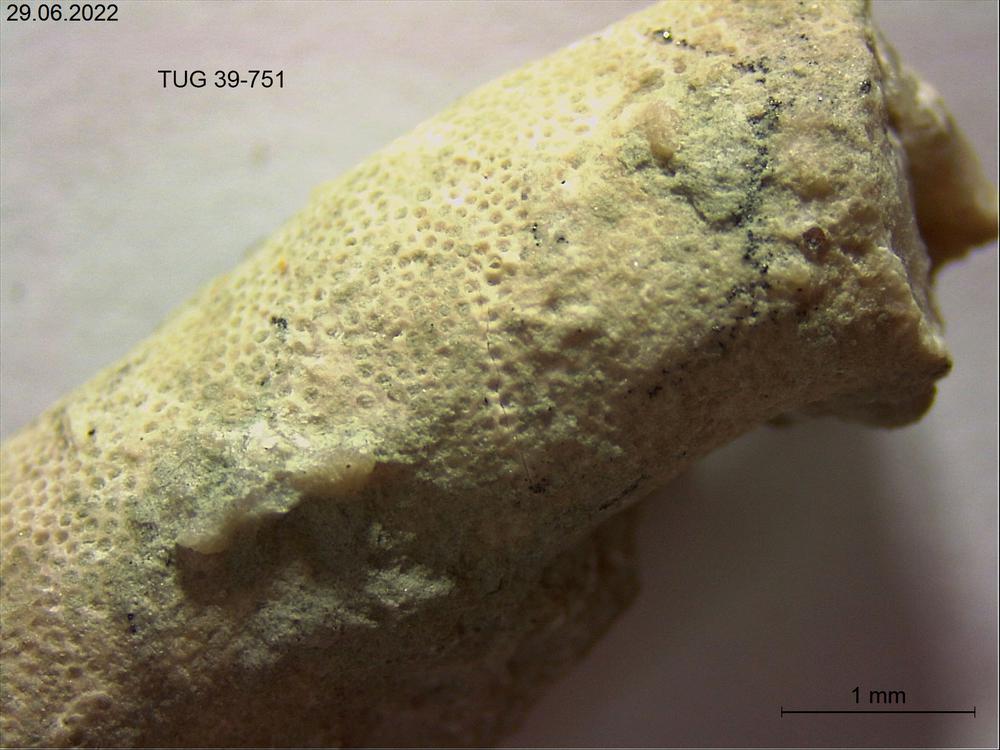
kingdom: Animalia
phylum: Bryozoa
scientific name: Bryozoa
